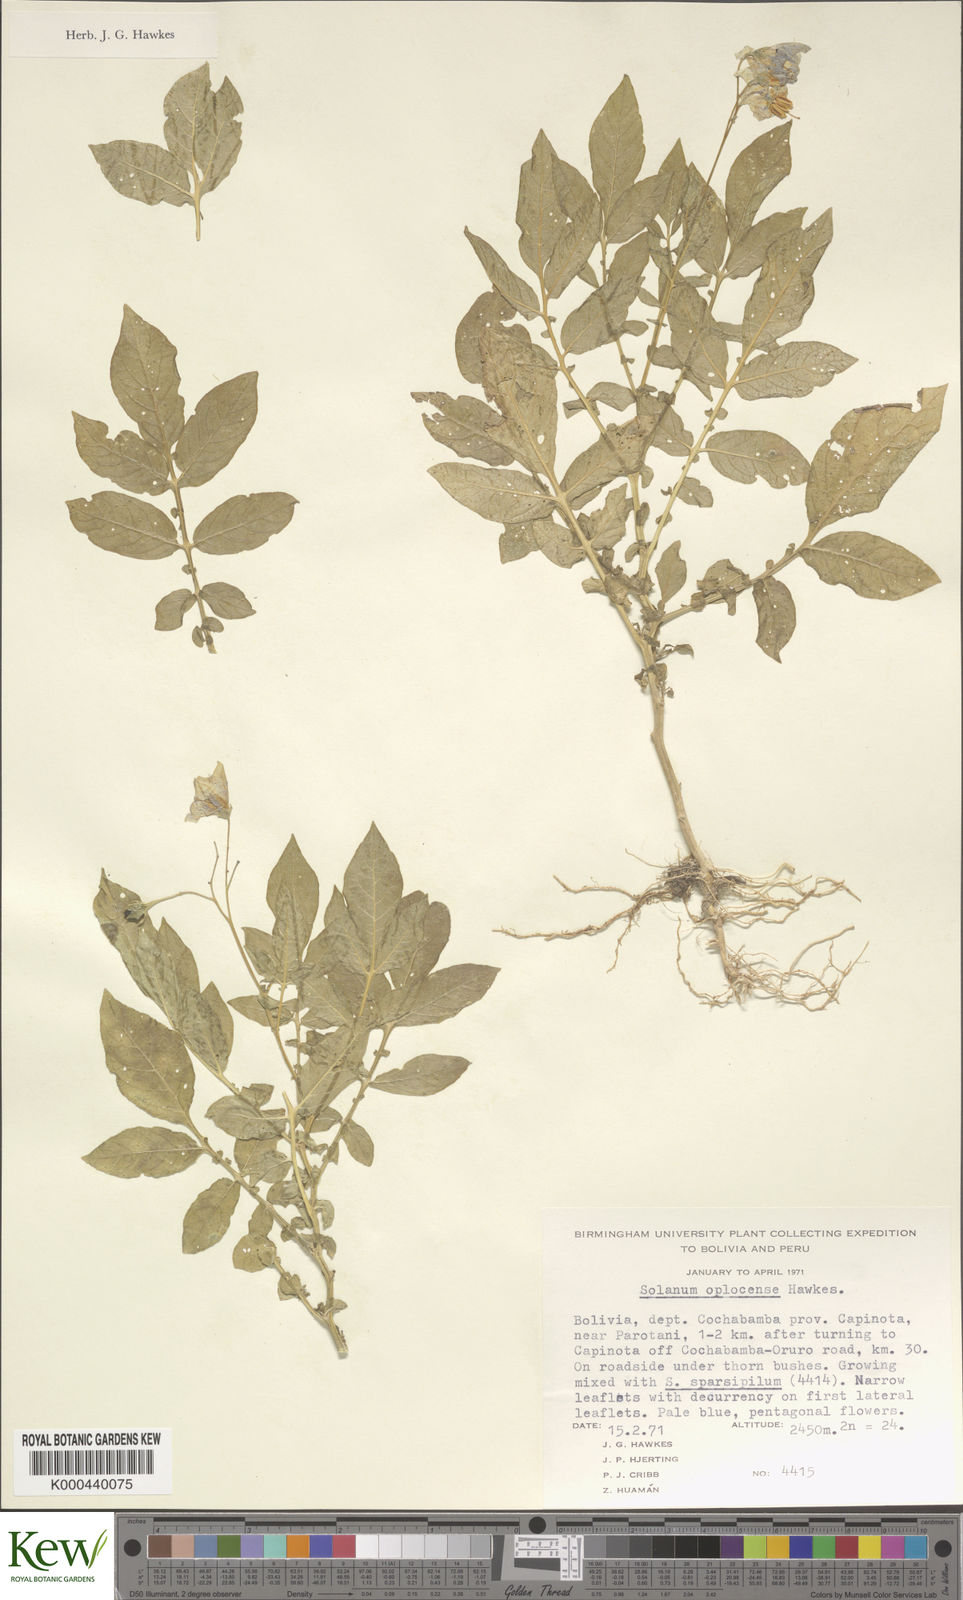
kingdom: Plantae
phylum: Tracheophyta
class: Magnoliopsida
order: Solanales
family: Solanaceae
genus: Solanum
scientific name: Solanum brevicaule
